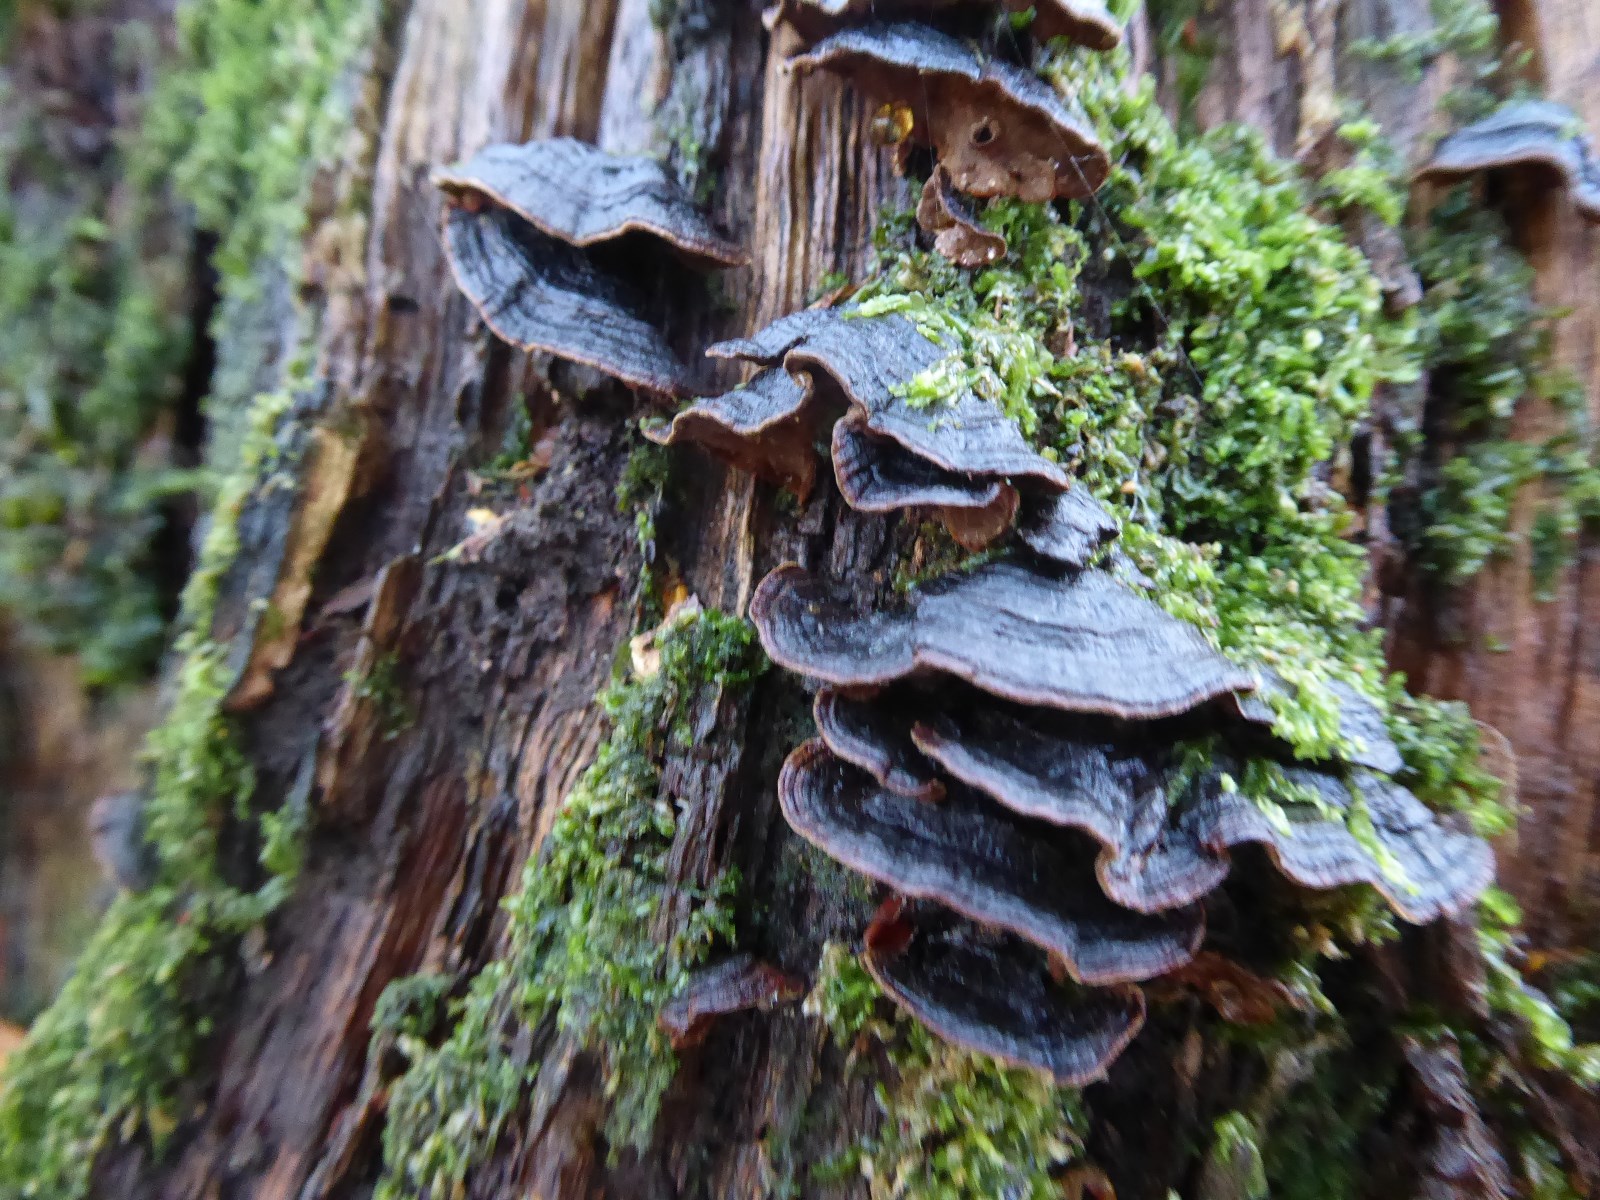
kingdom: Fungi
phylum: Basidiomycota
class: Agaricomycetes
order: Hymenochaetales
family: Hymenochaetaceae
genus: Hymenochaete
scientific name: Hymenochaete rubiginosa
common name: stiv ruslædersvamp
